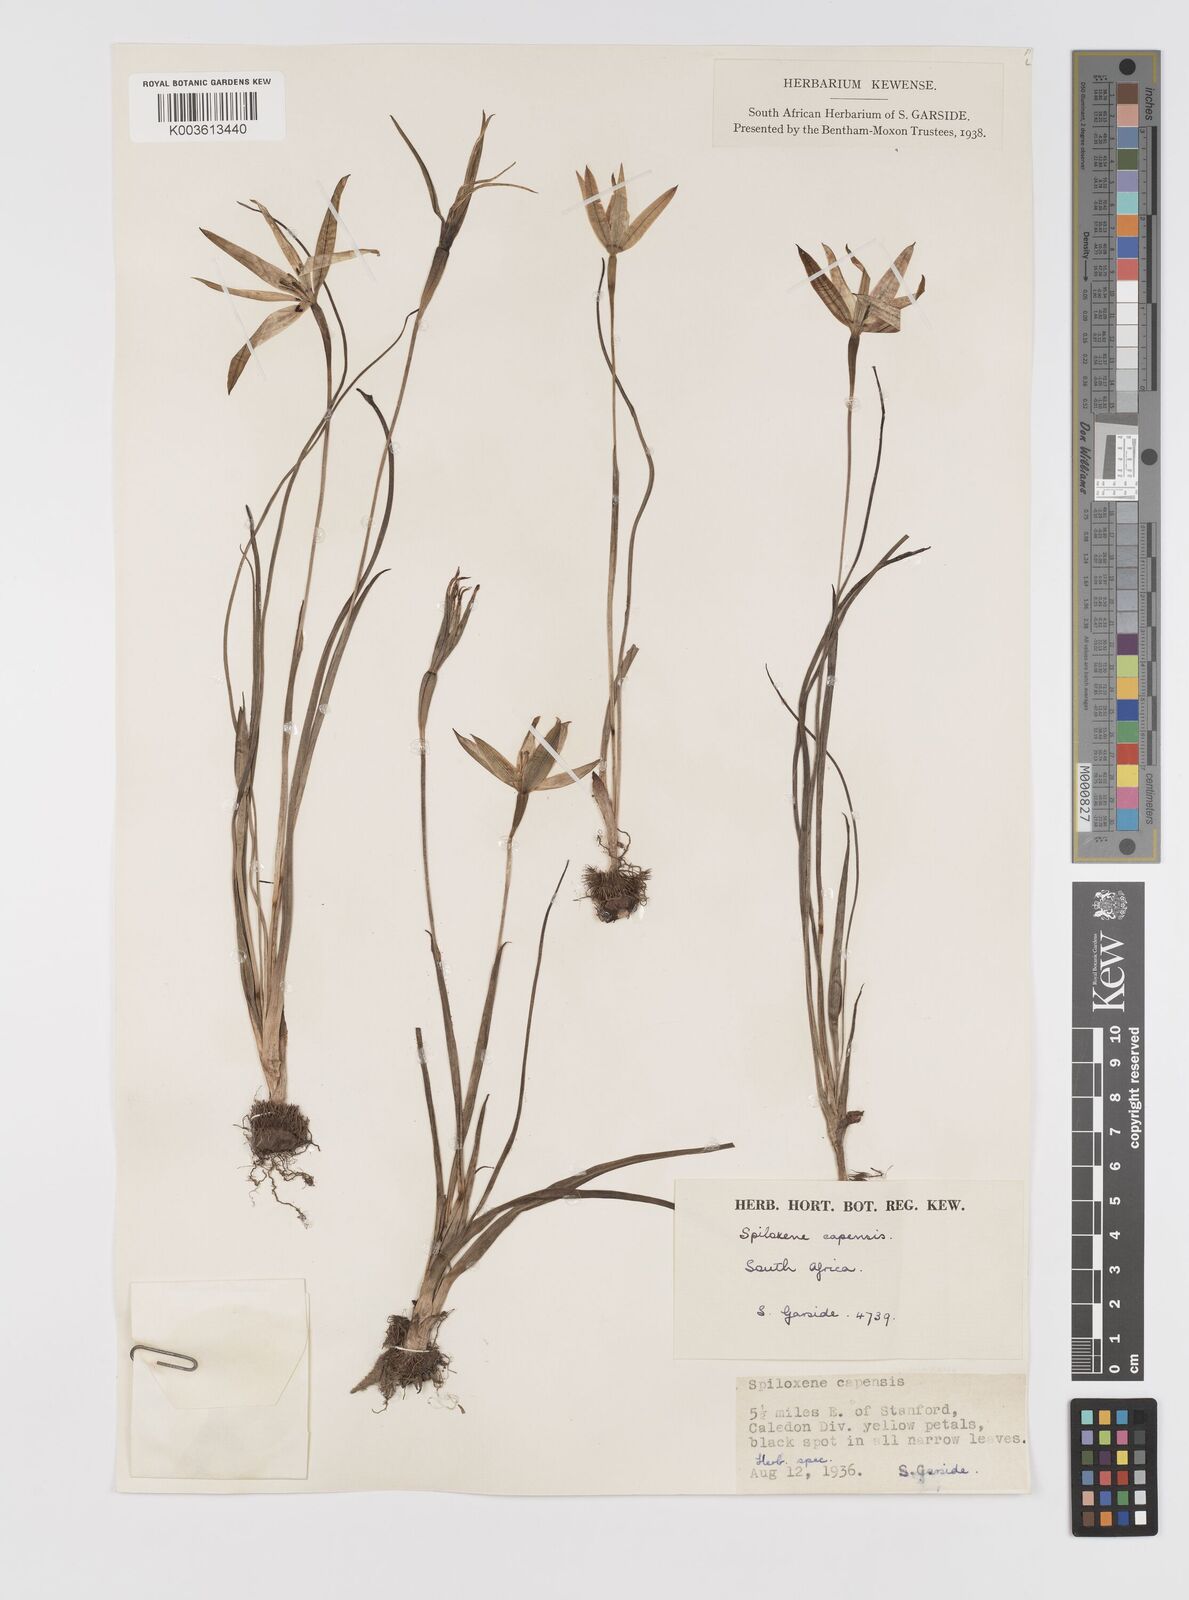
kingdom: Plantae
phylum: Tracheophyta
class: Liliopsida
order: Asparagales
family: Hypoxidaceae
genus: Pauridia
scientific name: Pauridia capensis
